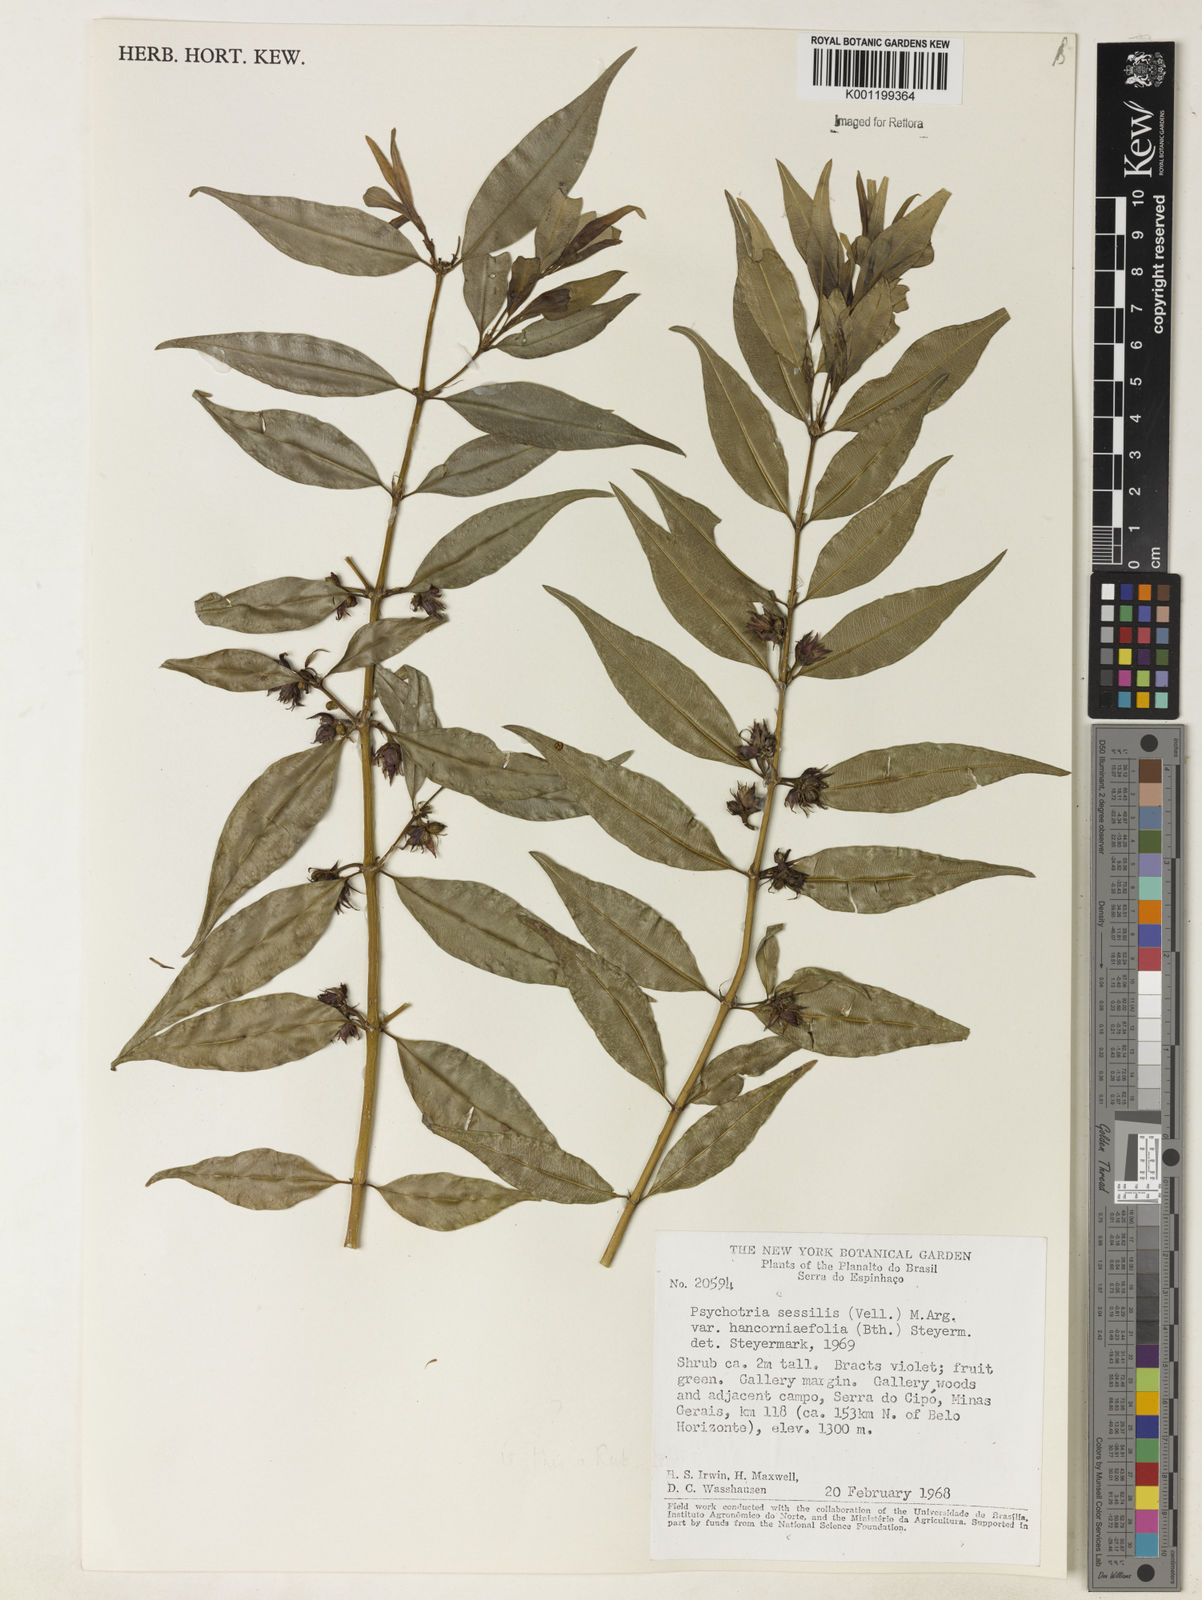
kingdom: Plantae
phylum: Tracheophyta
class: Magnoliopsida
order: Gentianales
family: Rubiaceae
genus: Palicourea
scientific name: Palicourea sessilis
